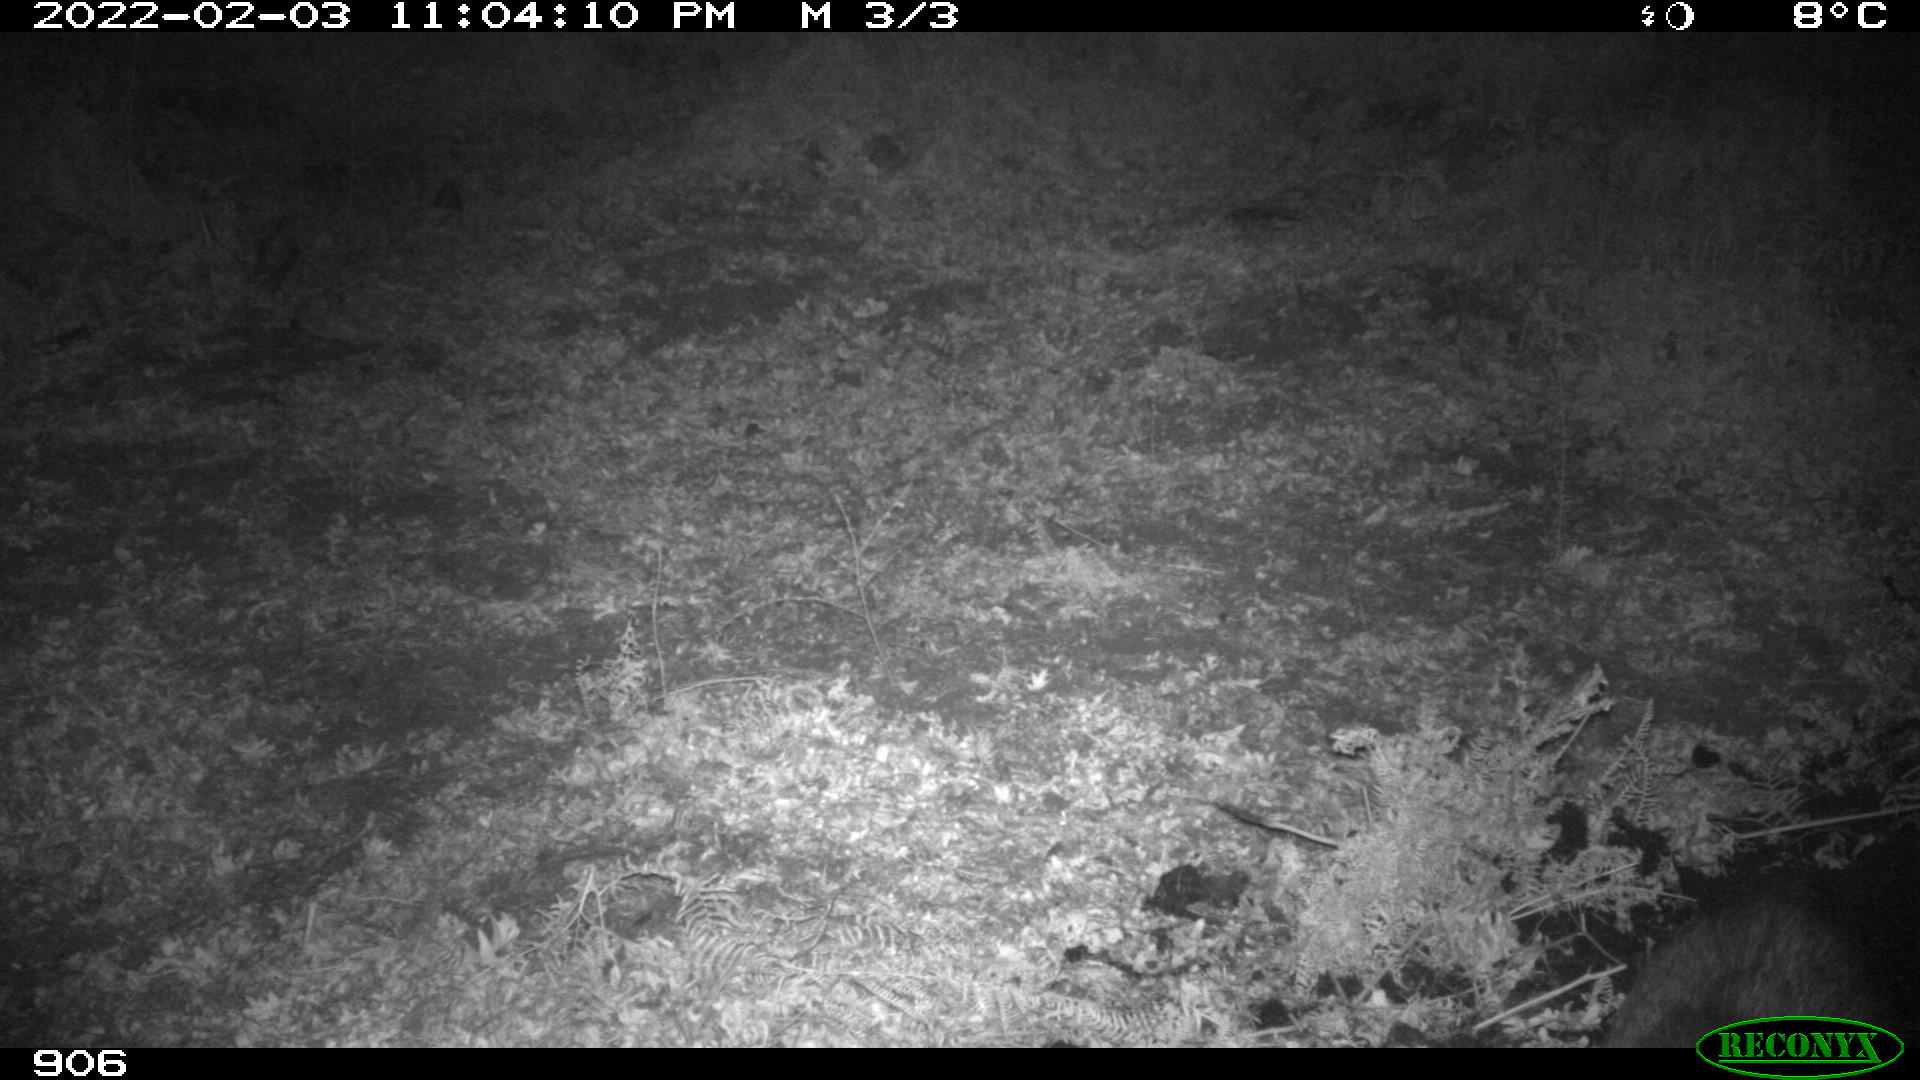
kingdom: Animalia
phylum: Chordata
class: Mammalia
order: Artiodactyla
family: Suidae
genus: Sus
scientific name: Sus scrofa
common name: Wild boar
